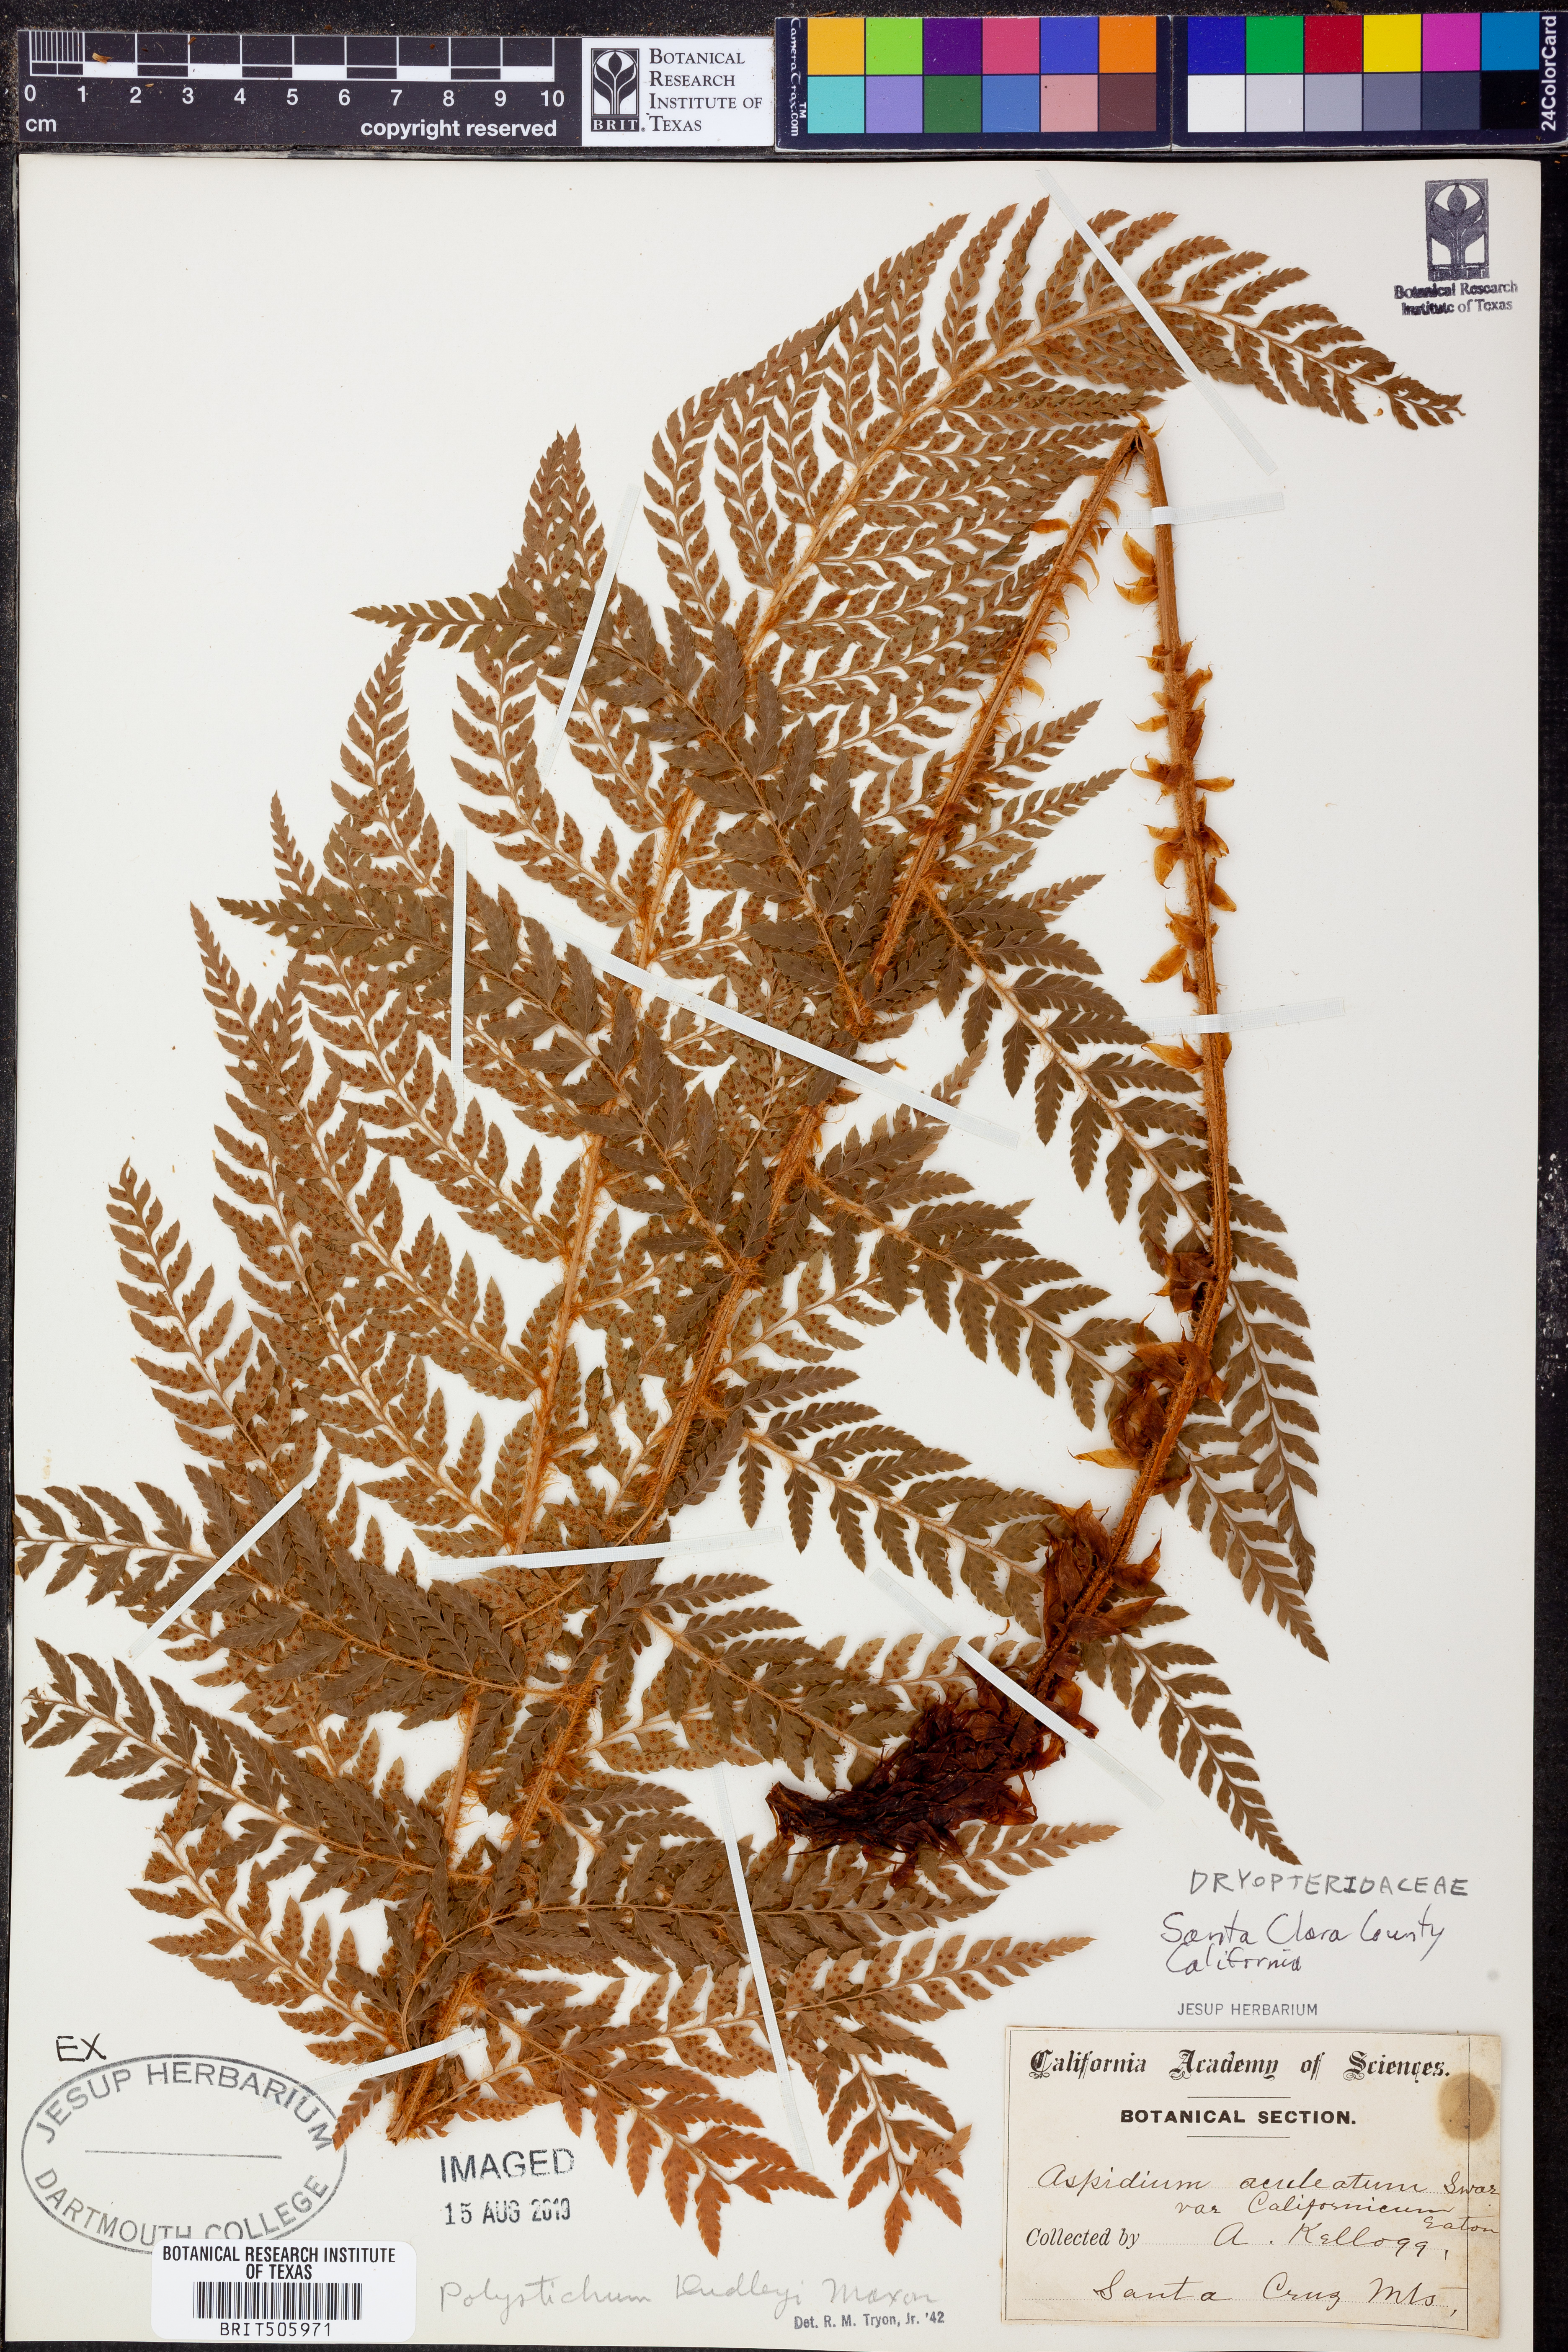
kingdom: Plantae
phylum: Tracheophyta
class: Polypodiopsida
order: Polypodiales
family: Dryopteridaceae
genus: Polystichum
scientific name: Polystichum dudleyi
